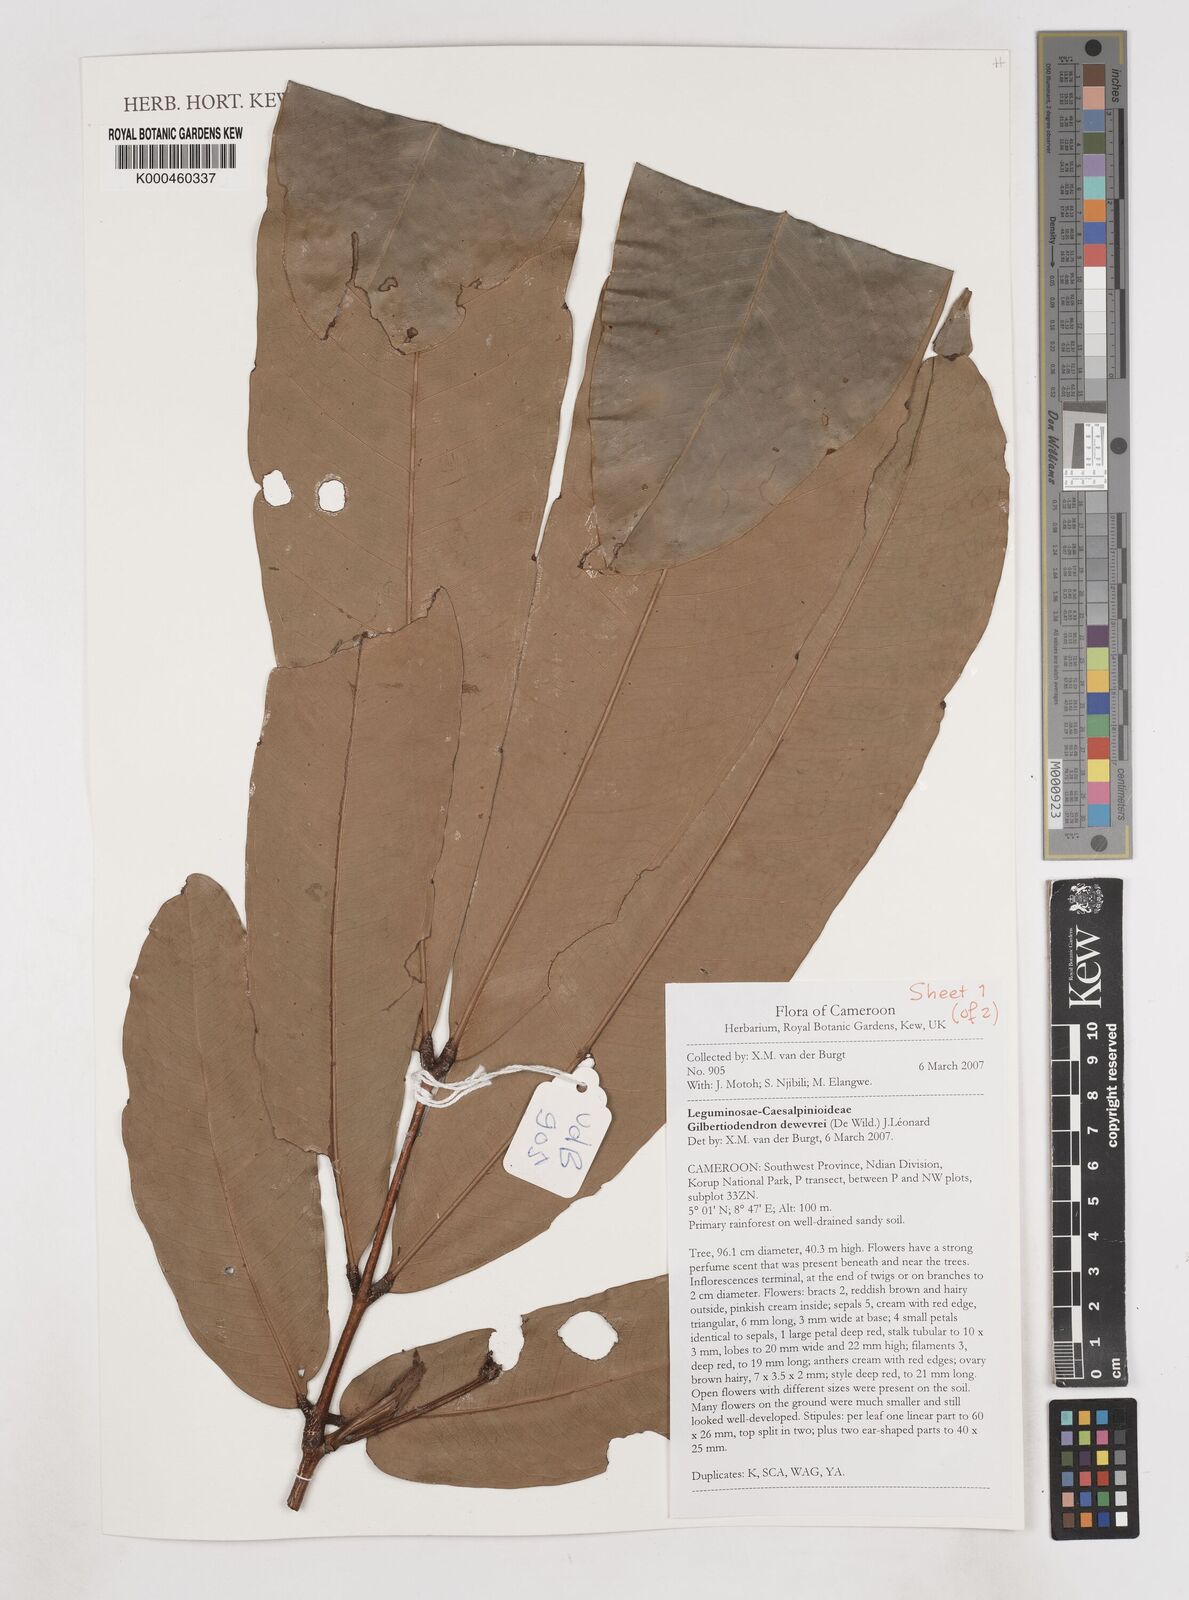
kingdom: Plantae
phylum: Tracheophyta
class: Magnoliopsida
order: Fabales
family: Fabaceae
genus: Gilbertiodendron
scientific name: Gilbertiodendron
